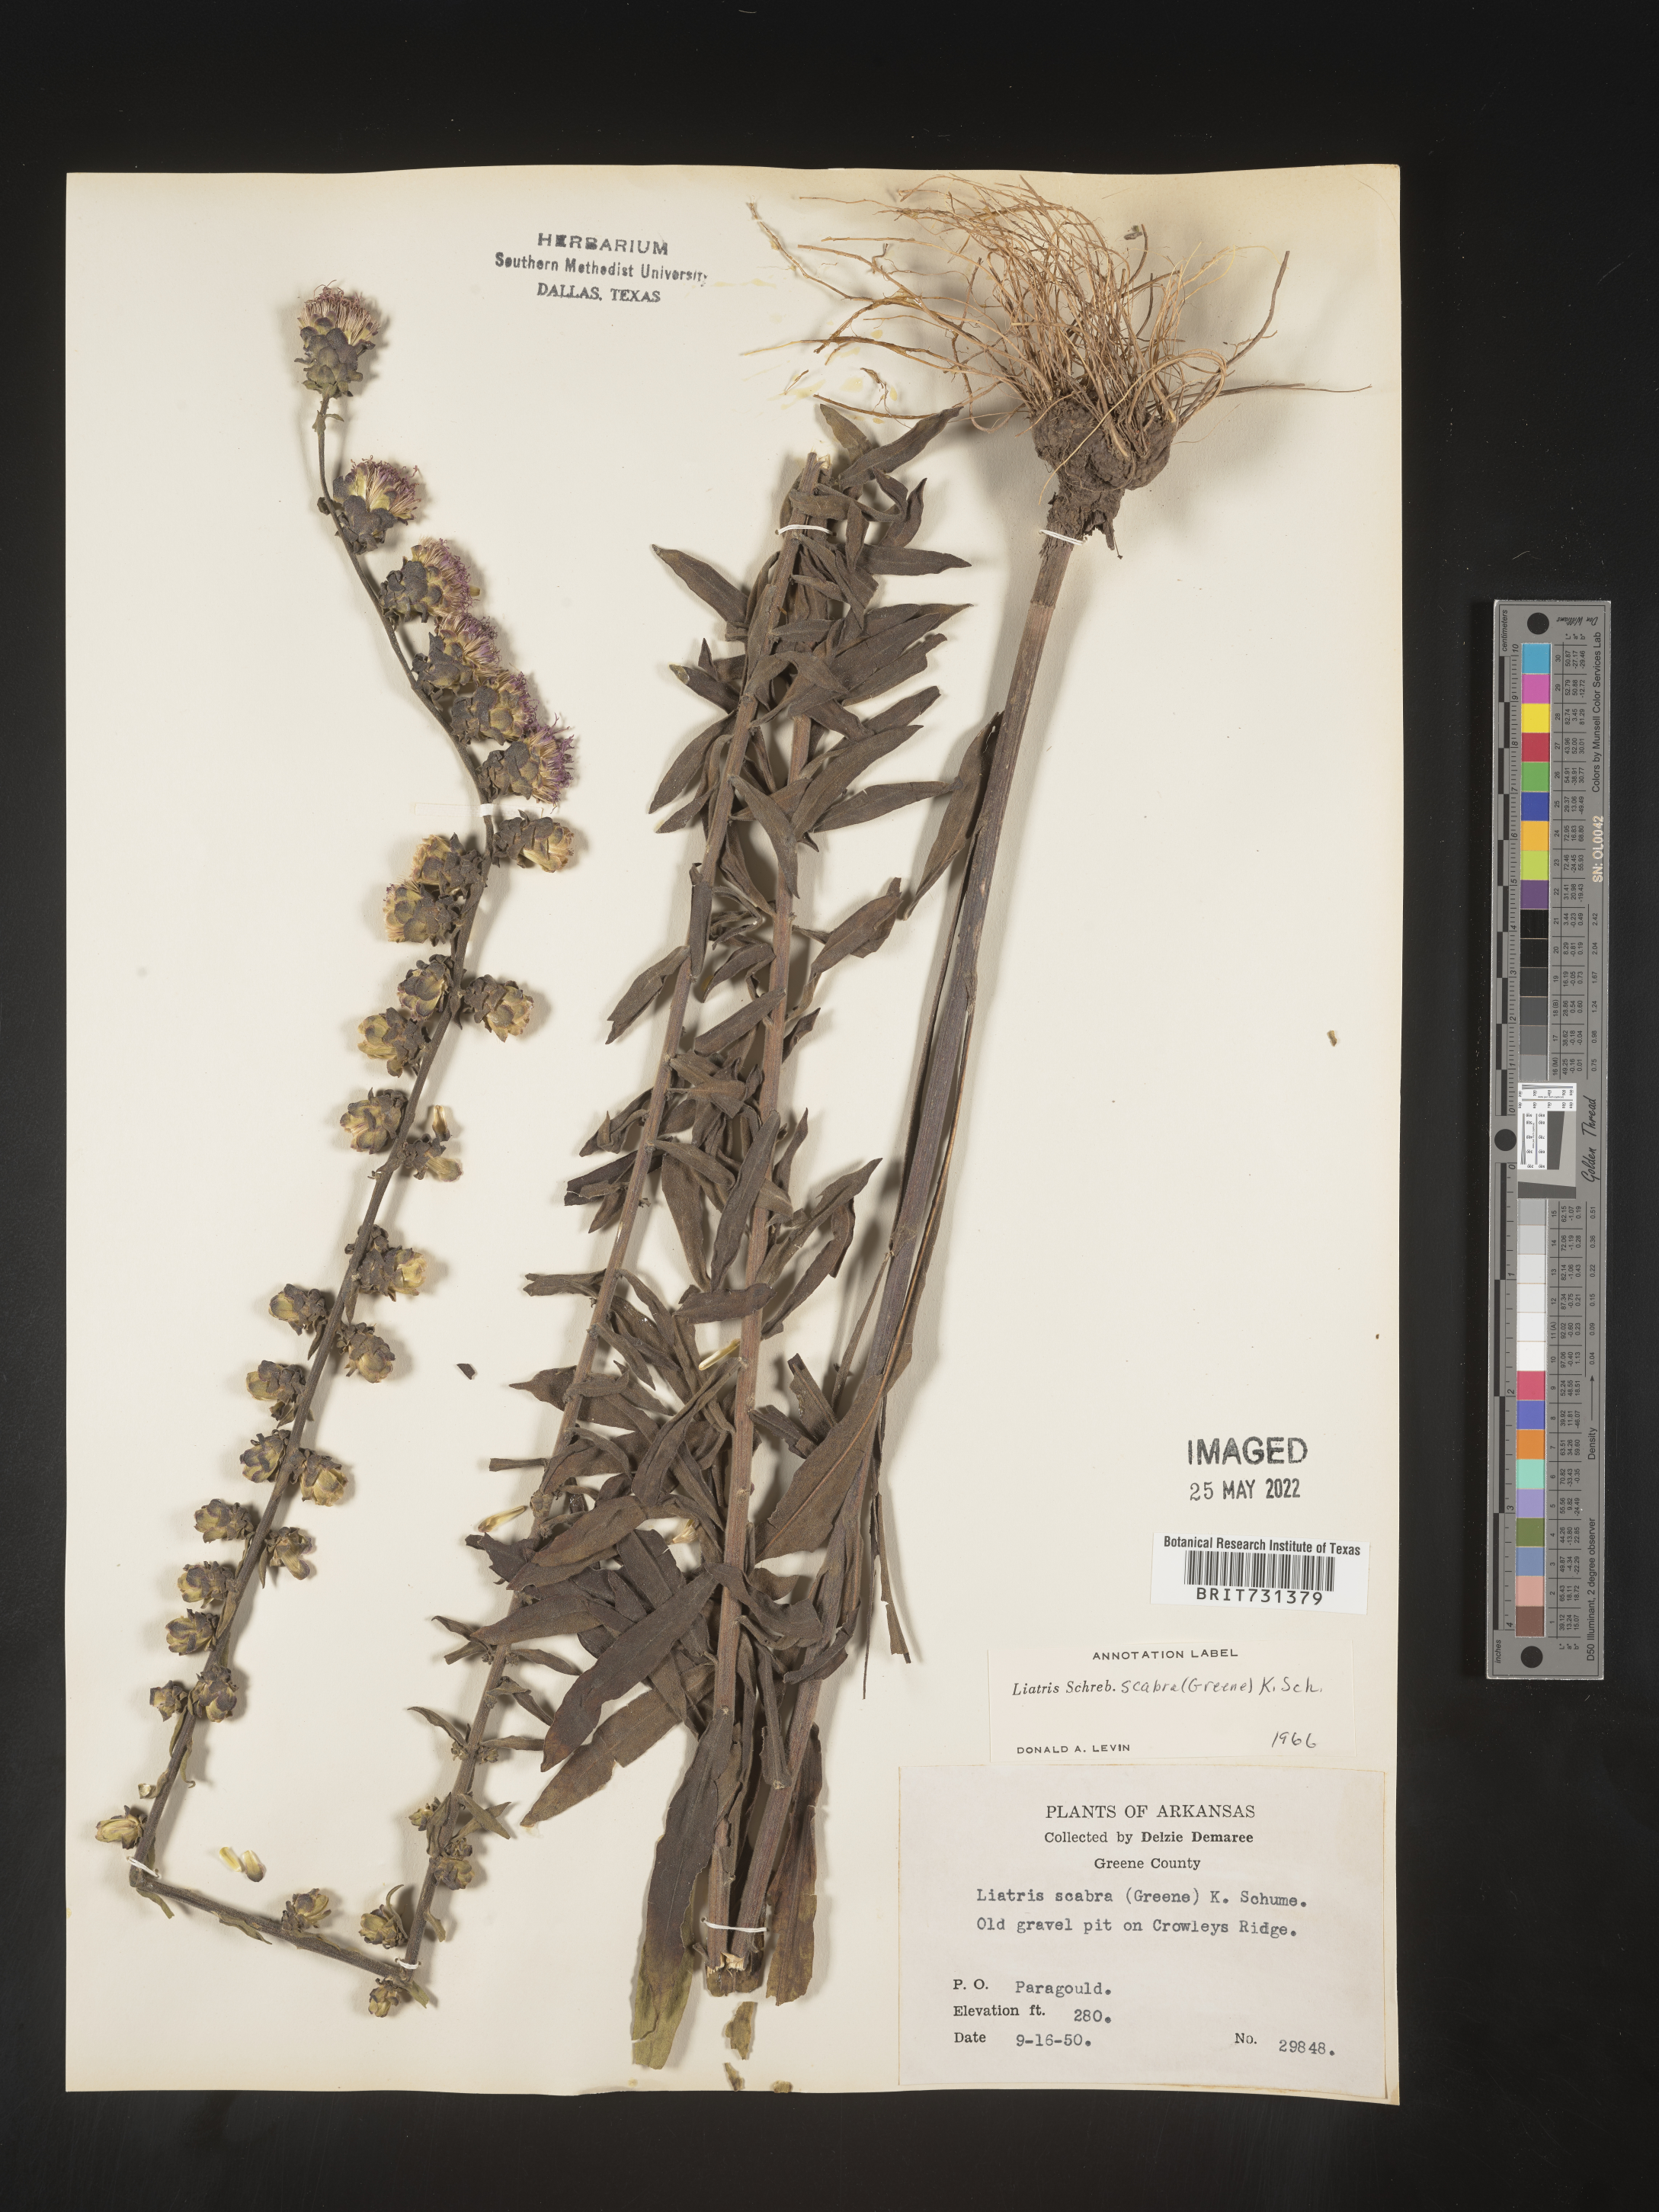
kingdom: Plantae
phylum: Tracheophyta
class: Magnoliopsida
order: Asterales
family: Asteraceae
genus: Liatris
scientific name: Liatris squarrulosa
